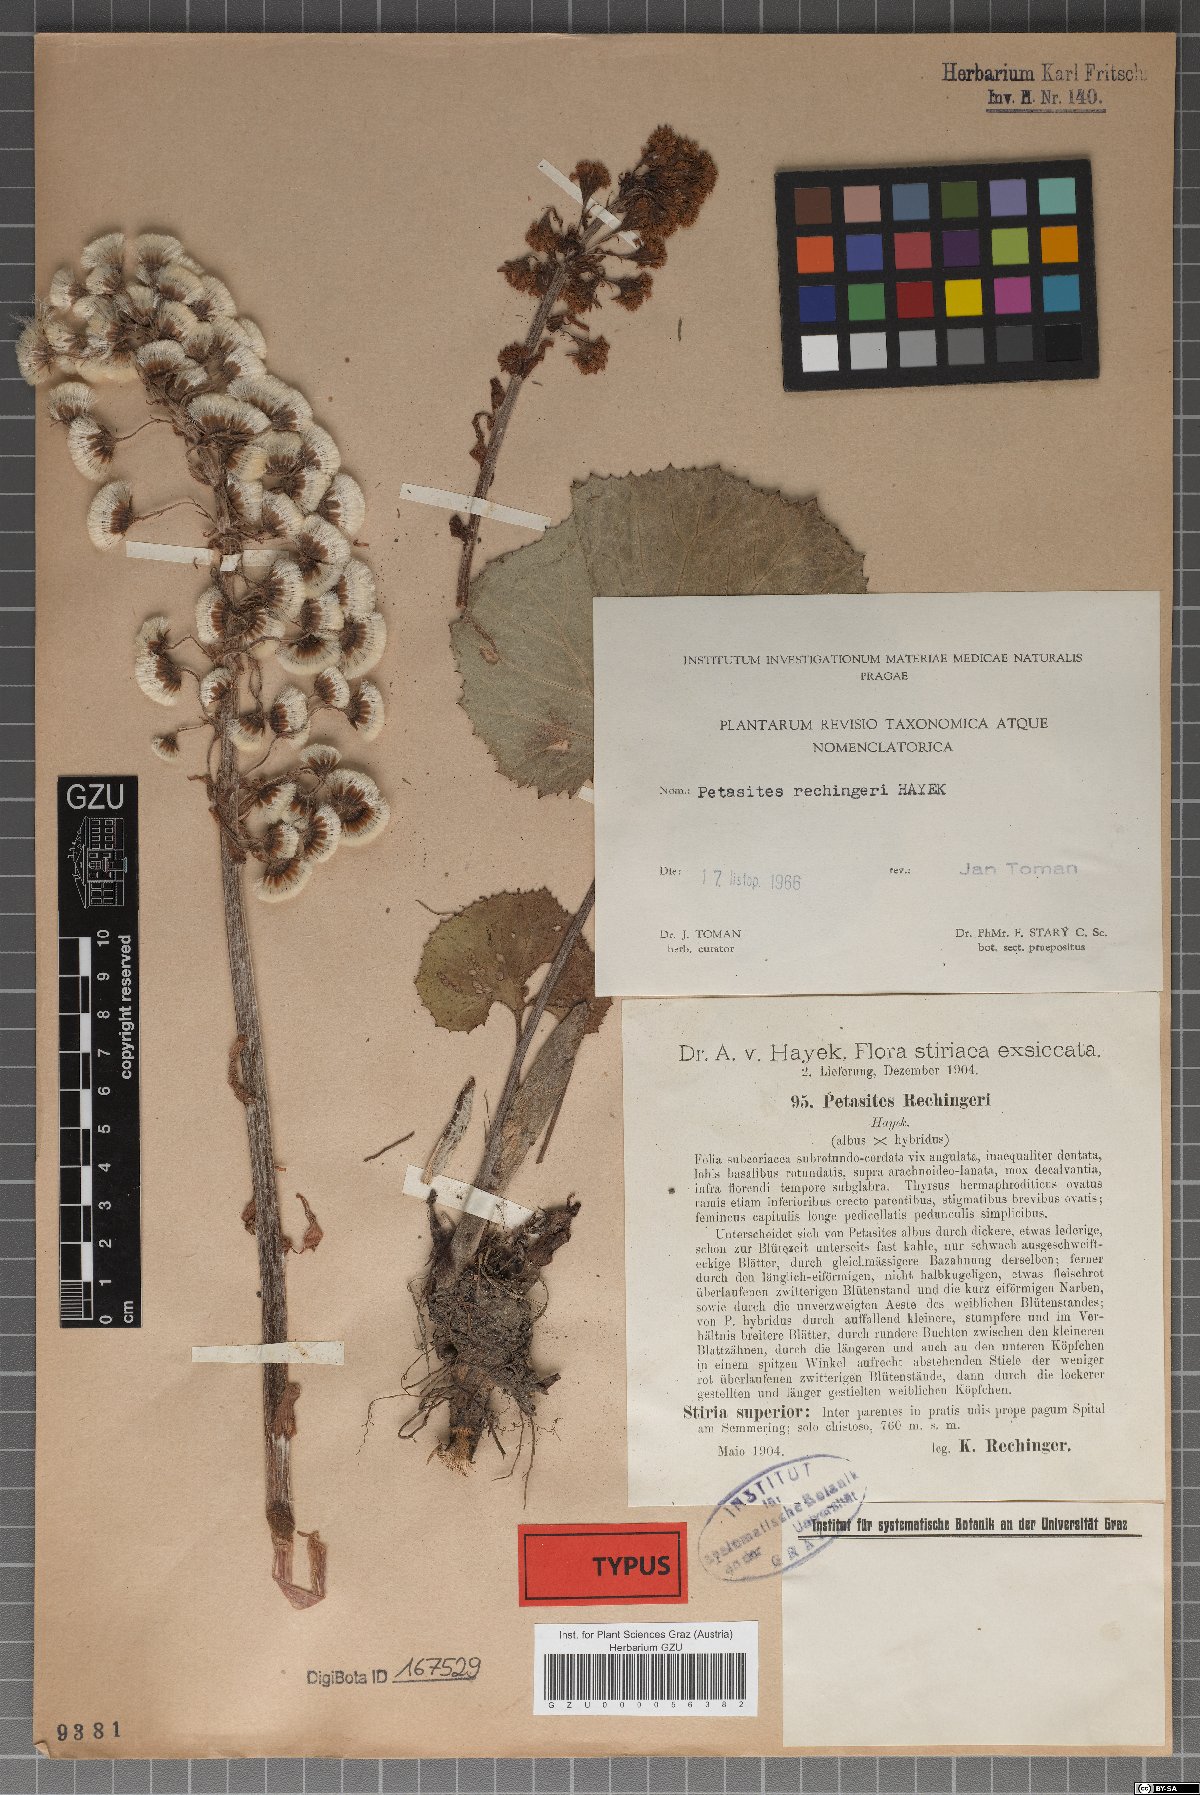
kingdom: Plantae
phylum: Tracheophyta
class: Magnoliopsida
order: Asterales
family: Asteraceae
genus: Petasites
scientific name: Petasites rechingeri
